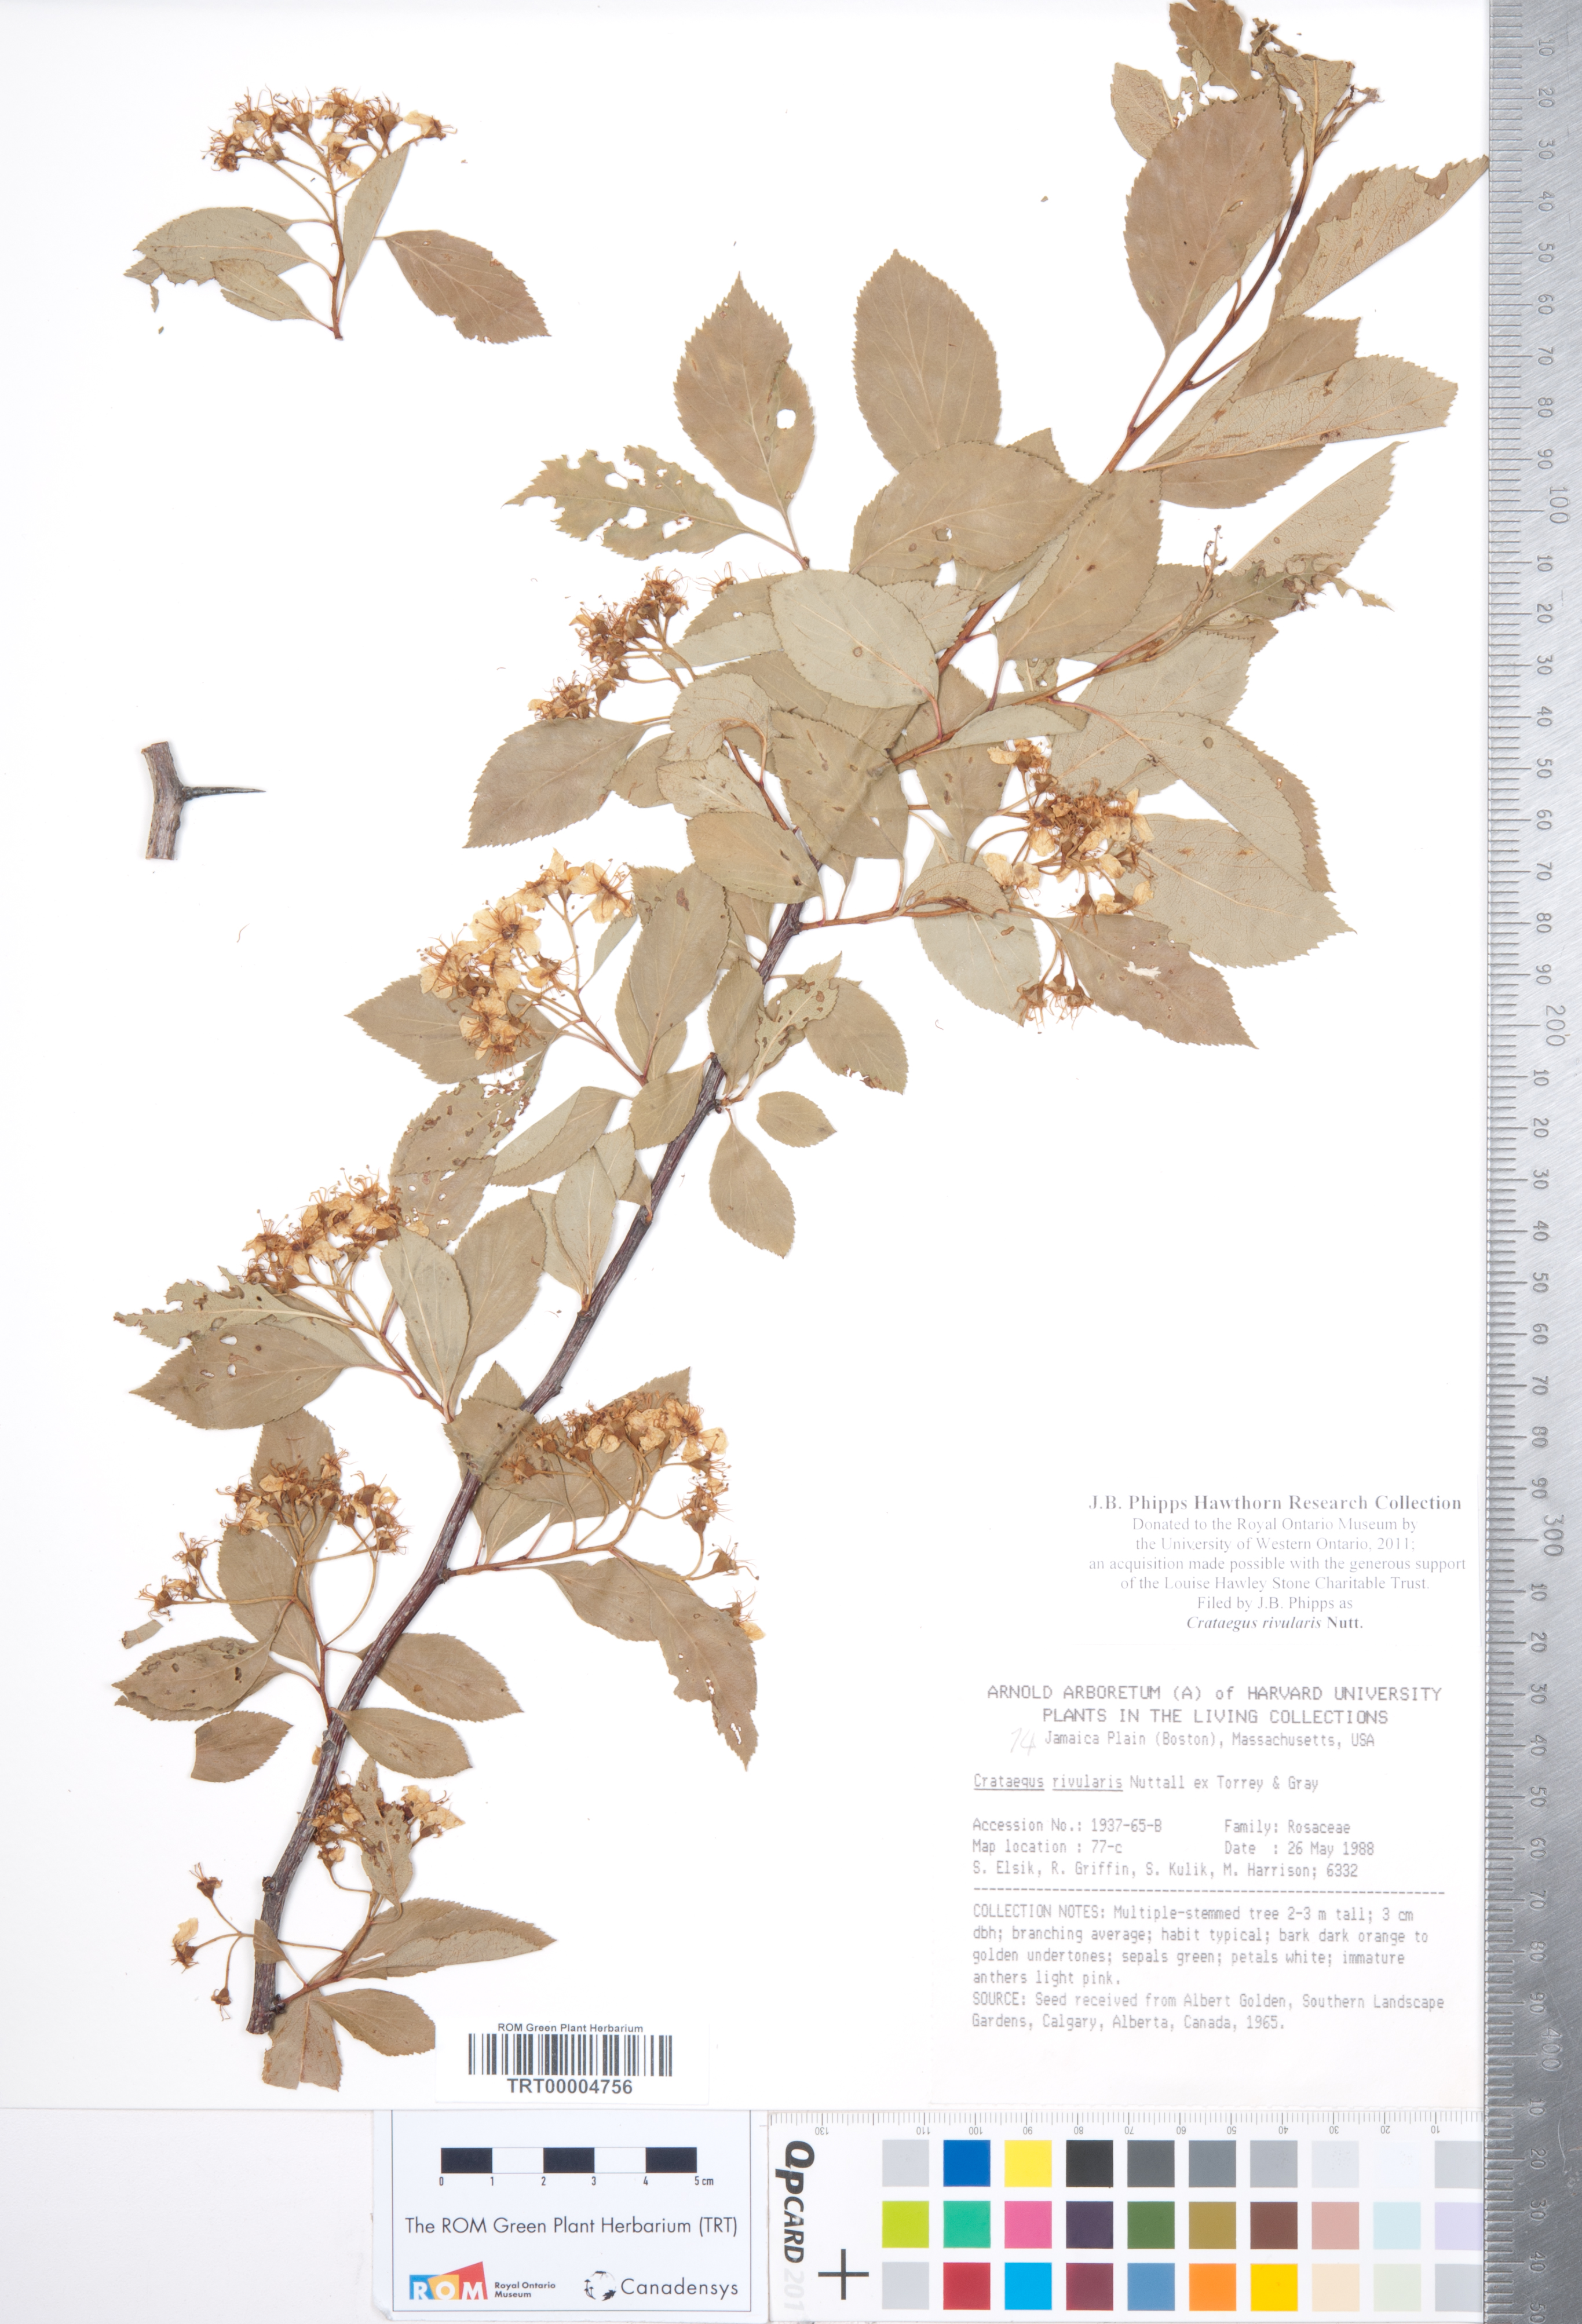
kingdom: Plantae
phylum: Tracheophyta
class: Magnoliopsida
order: Rosales
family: Rosaceae
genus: Crataegus
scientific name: Crataegus rivularis
